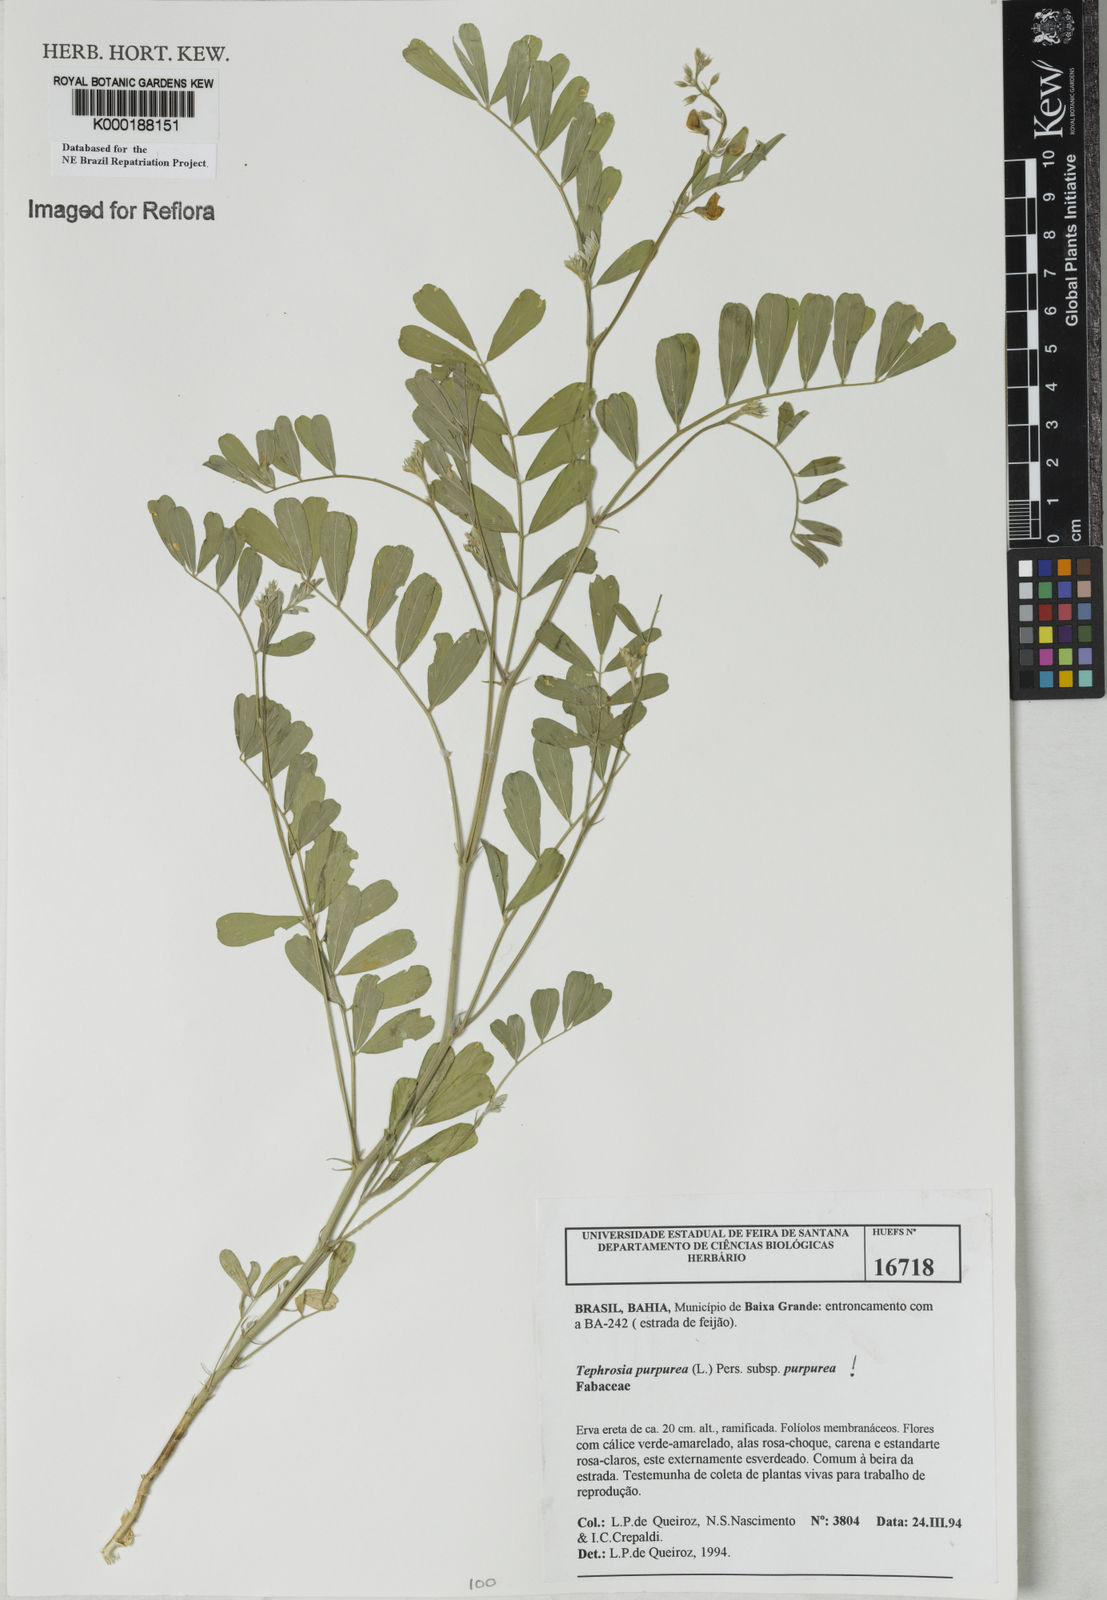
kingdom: Plantae
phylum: Tracheophyta
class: Magnoliopsida
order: Fabales
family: Fabaceae
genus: Tephrosia
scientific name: Tephrosia purpurea
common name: Fishpoison
